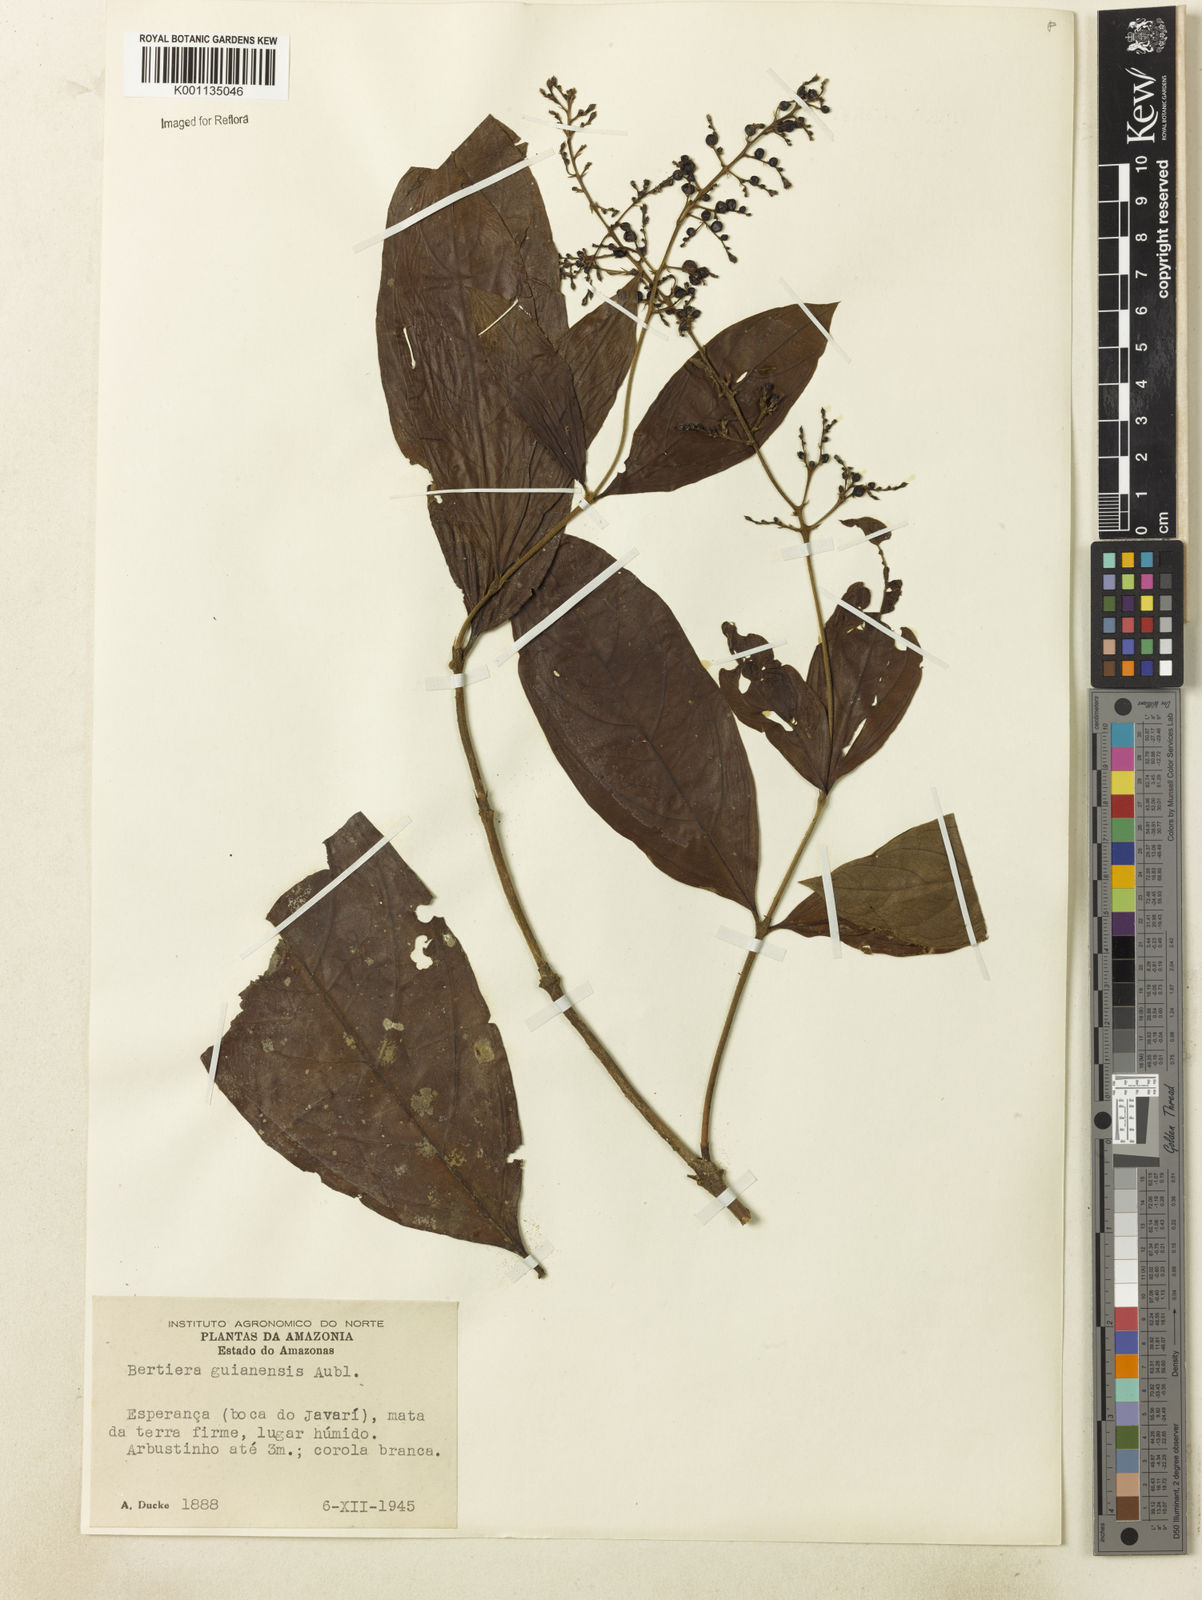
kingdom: Plantae
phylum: Tracheophyta
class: Magnoliopsida
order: Gentianales
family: Rubiaceae
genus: Bertiera
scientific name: Bertiera guianensis
